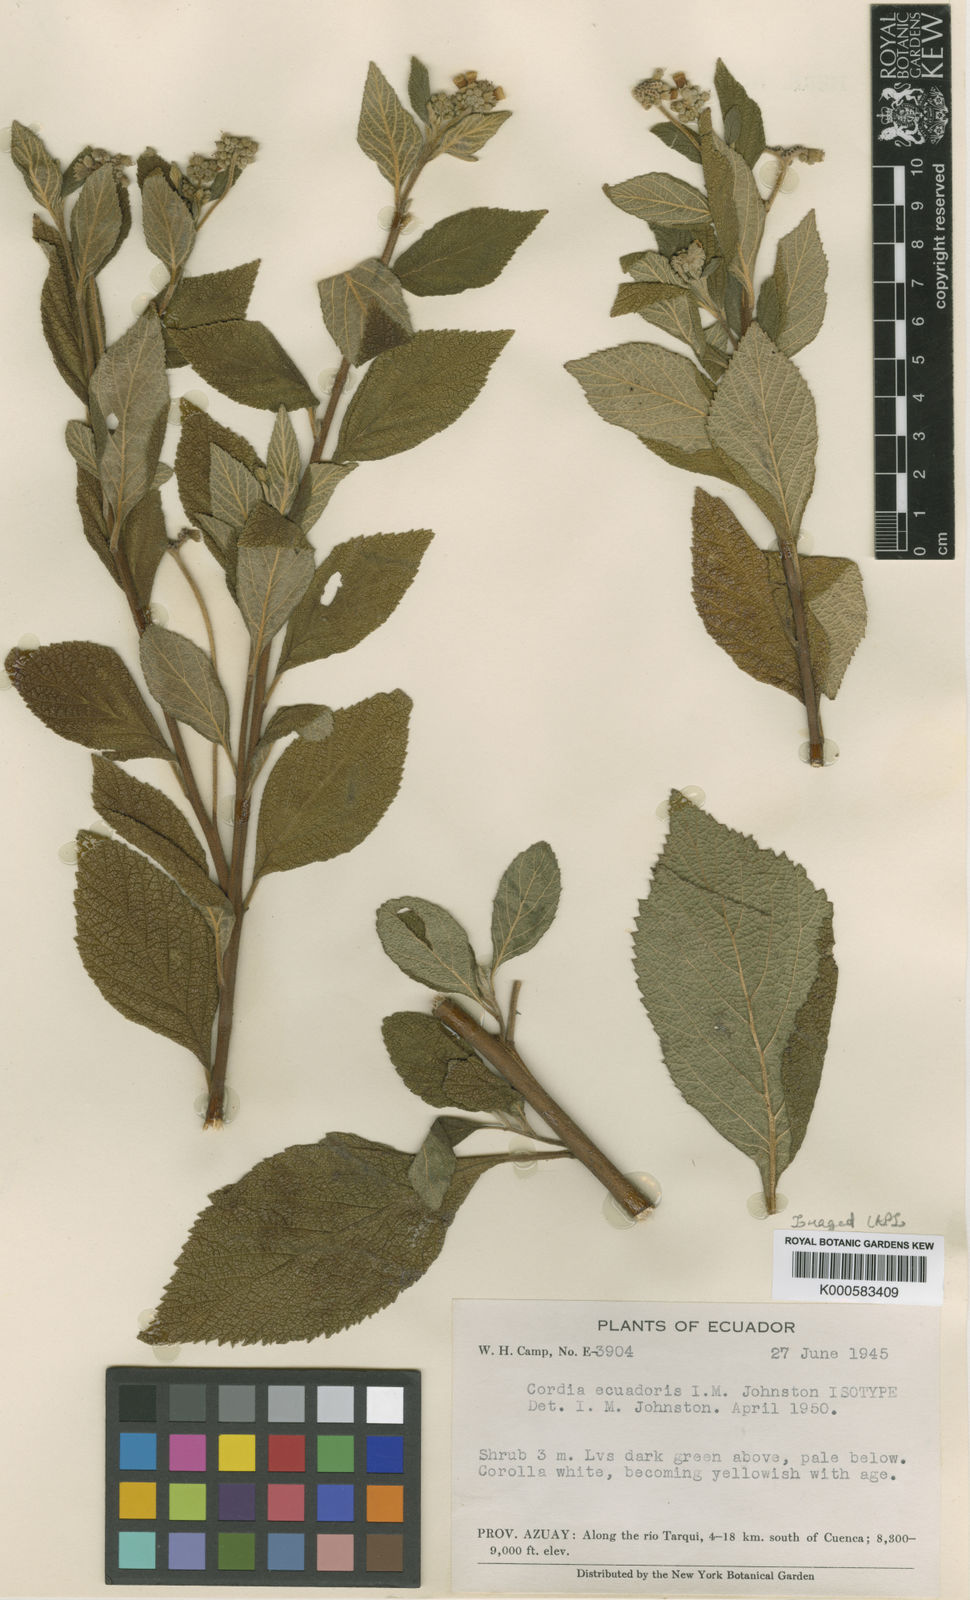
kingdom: Plantae
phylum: Tracheophyta
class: Magnoliopsida
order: Boraginales
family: Cordiaceae
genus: Cordia
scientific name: Cordia
